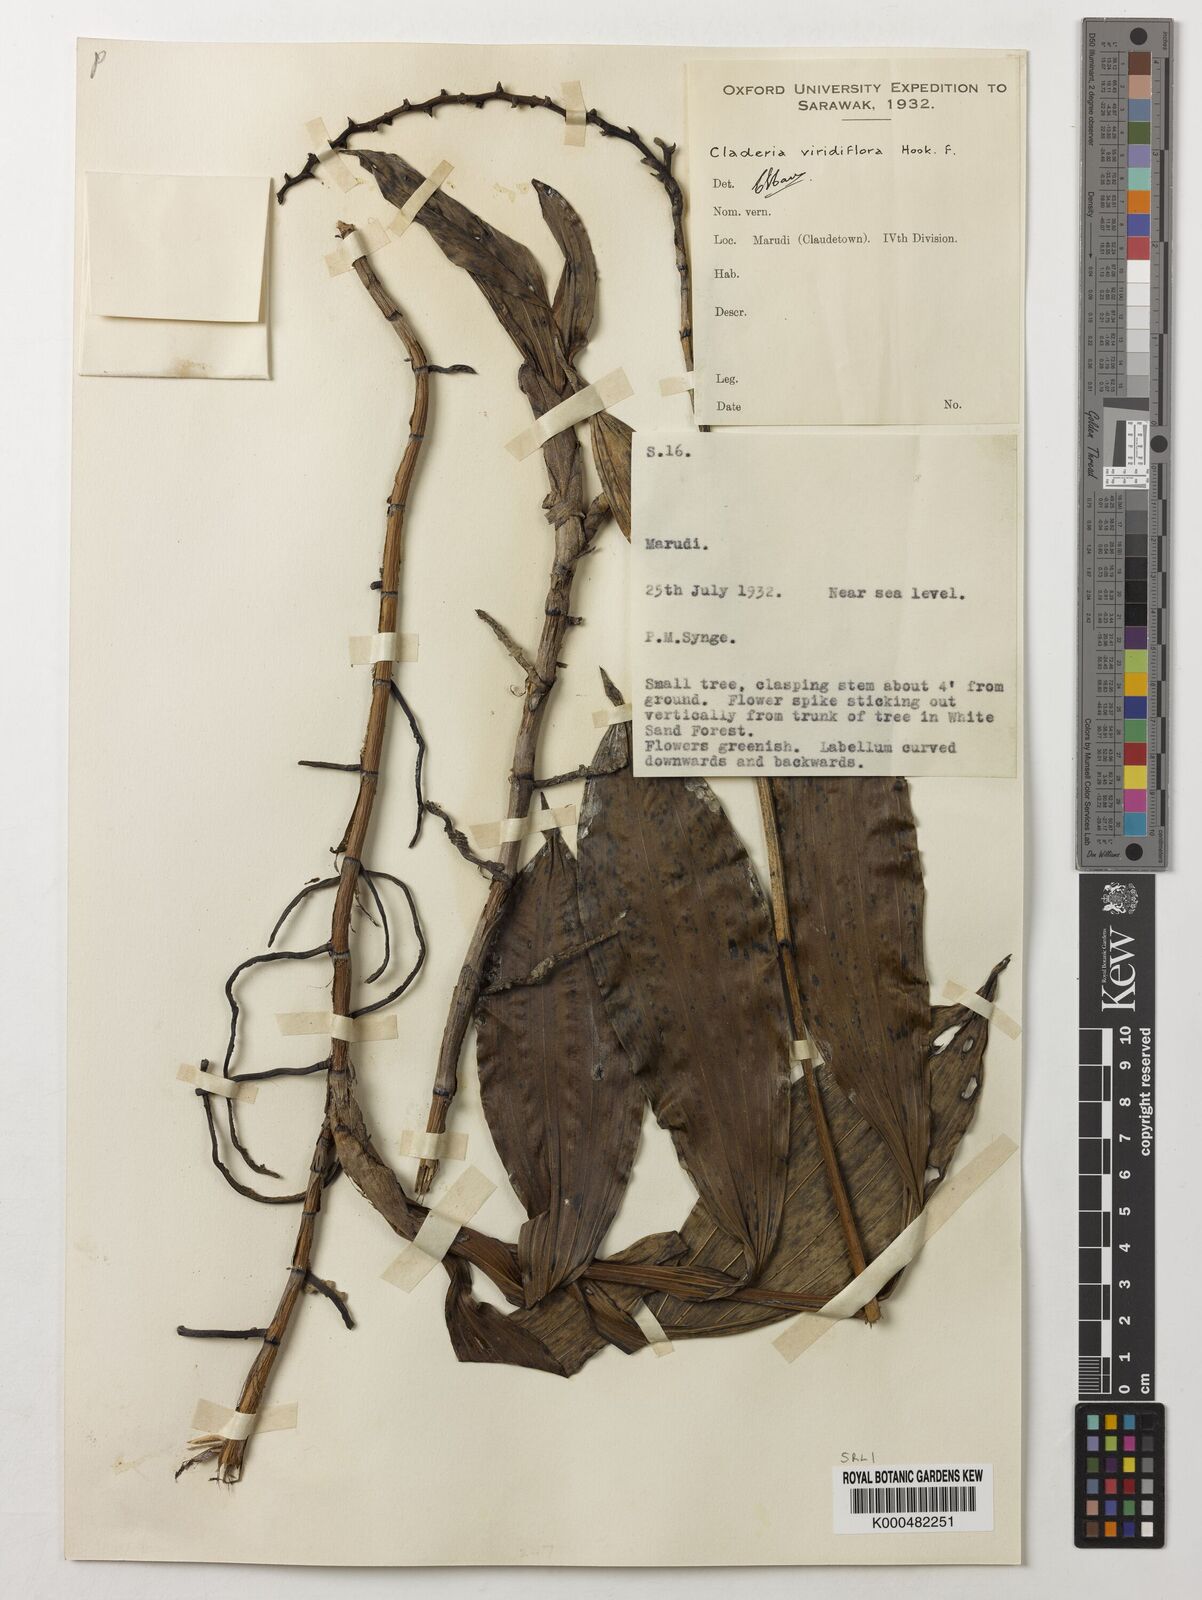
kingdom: Plantae
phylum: Tracheophyta
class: Liliopsida
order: Asparagales
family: Orchidaceae
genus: Claderia
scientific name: Claderia
